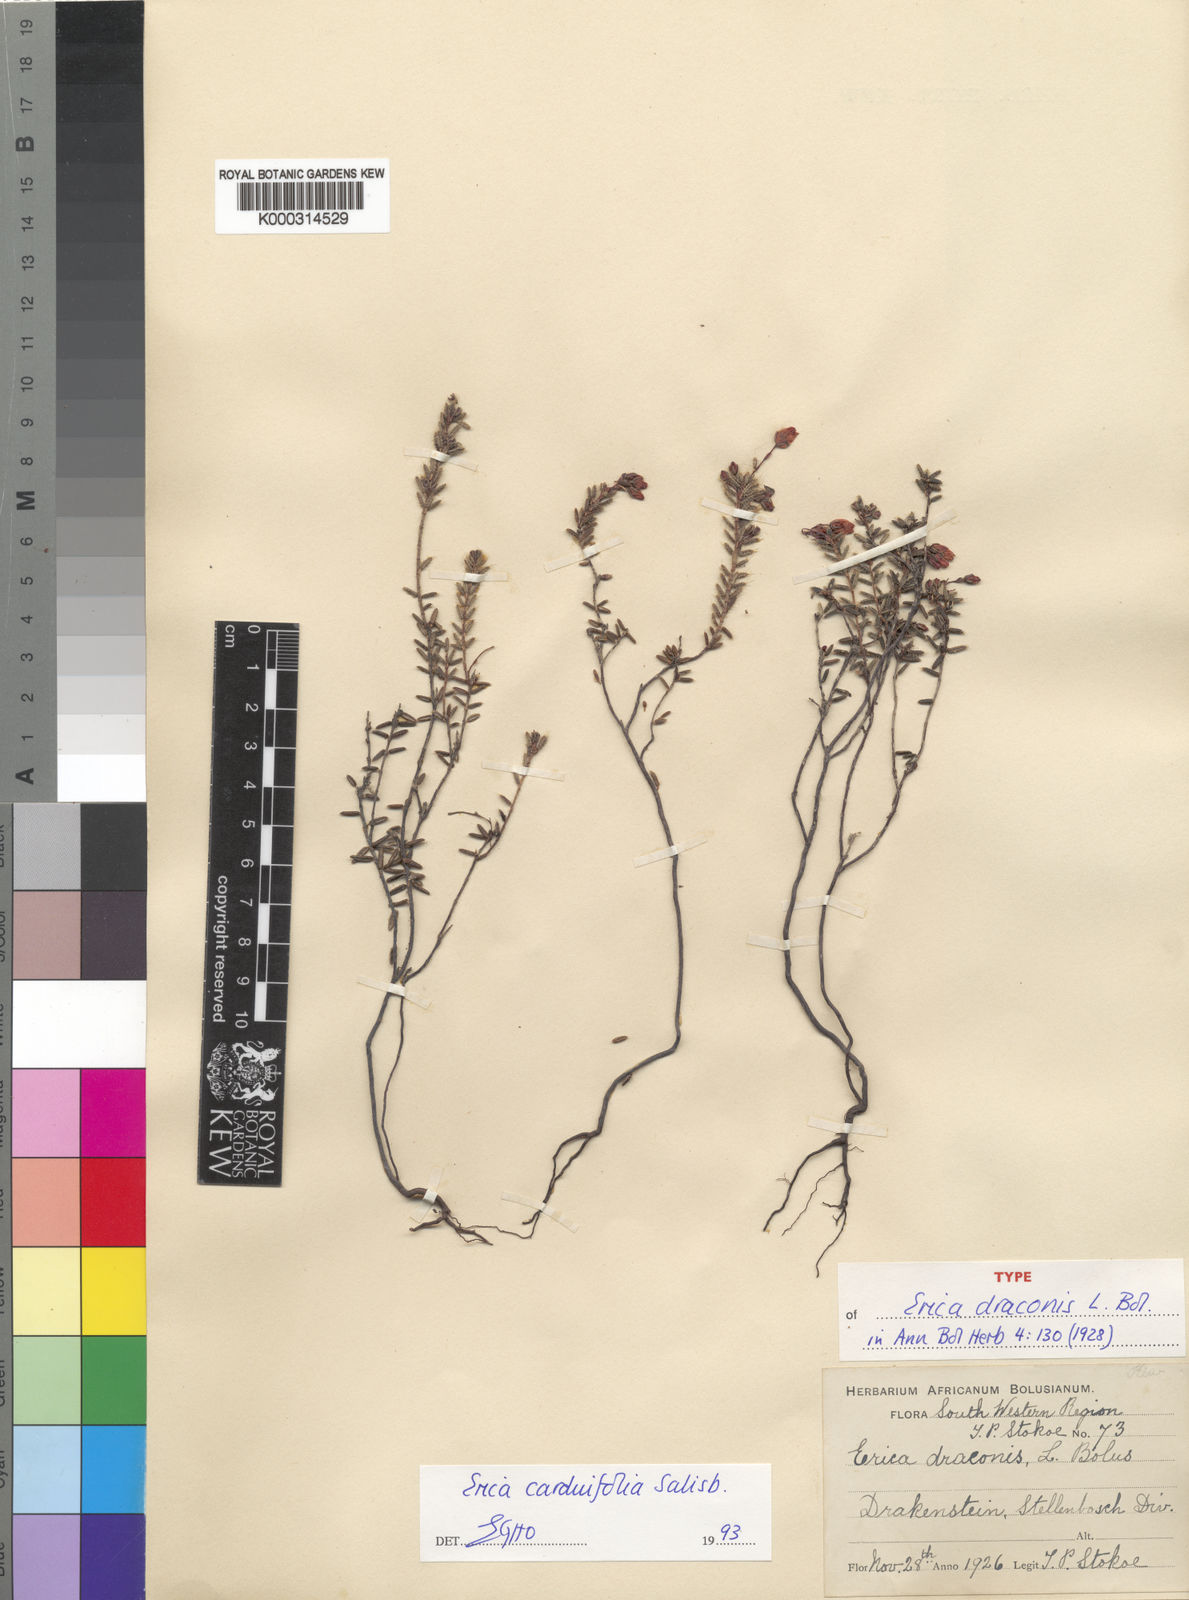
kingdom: Plantae
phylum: Tracheophyta
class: Magnoliopsida
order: Ericales
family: Ericaceae
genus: Erica
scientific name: Erica carduifolia
